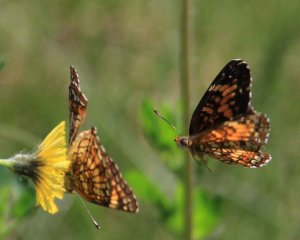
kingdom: Animalia
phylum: Arthropoda
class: Insecta
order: Lepidoptera
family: Nymphalidae
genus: Chlosyne
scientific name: Chlosyne harrisii
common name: Harris's Checkerspot
